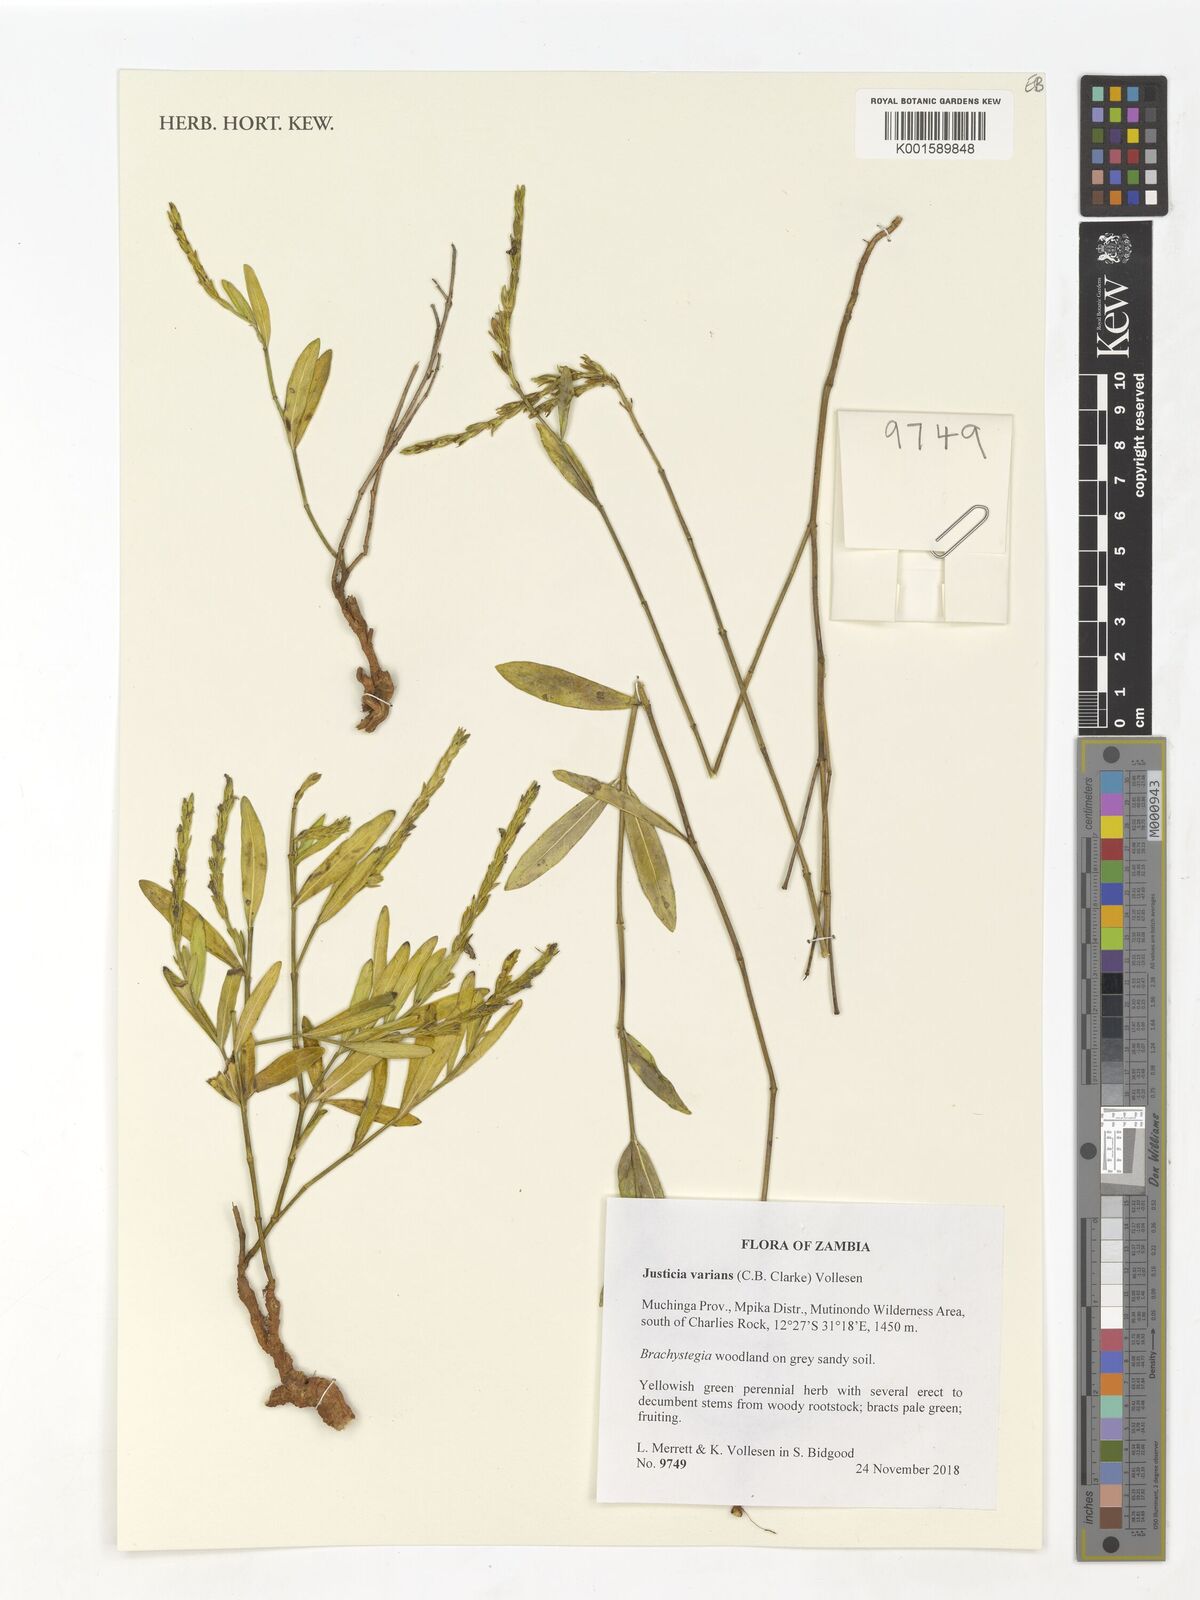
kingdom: Plantae
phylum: Tracheophyta
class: Magnoliopsida
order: Lamiales
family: Acanthaceae
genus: Monechma
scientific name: Monechma varians
